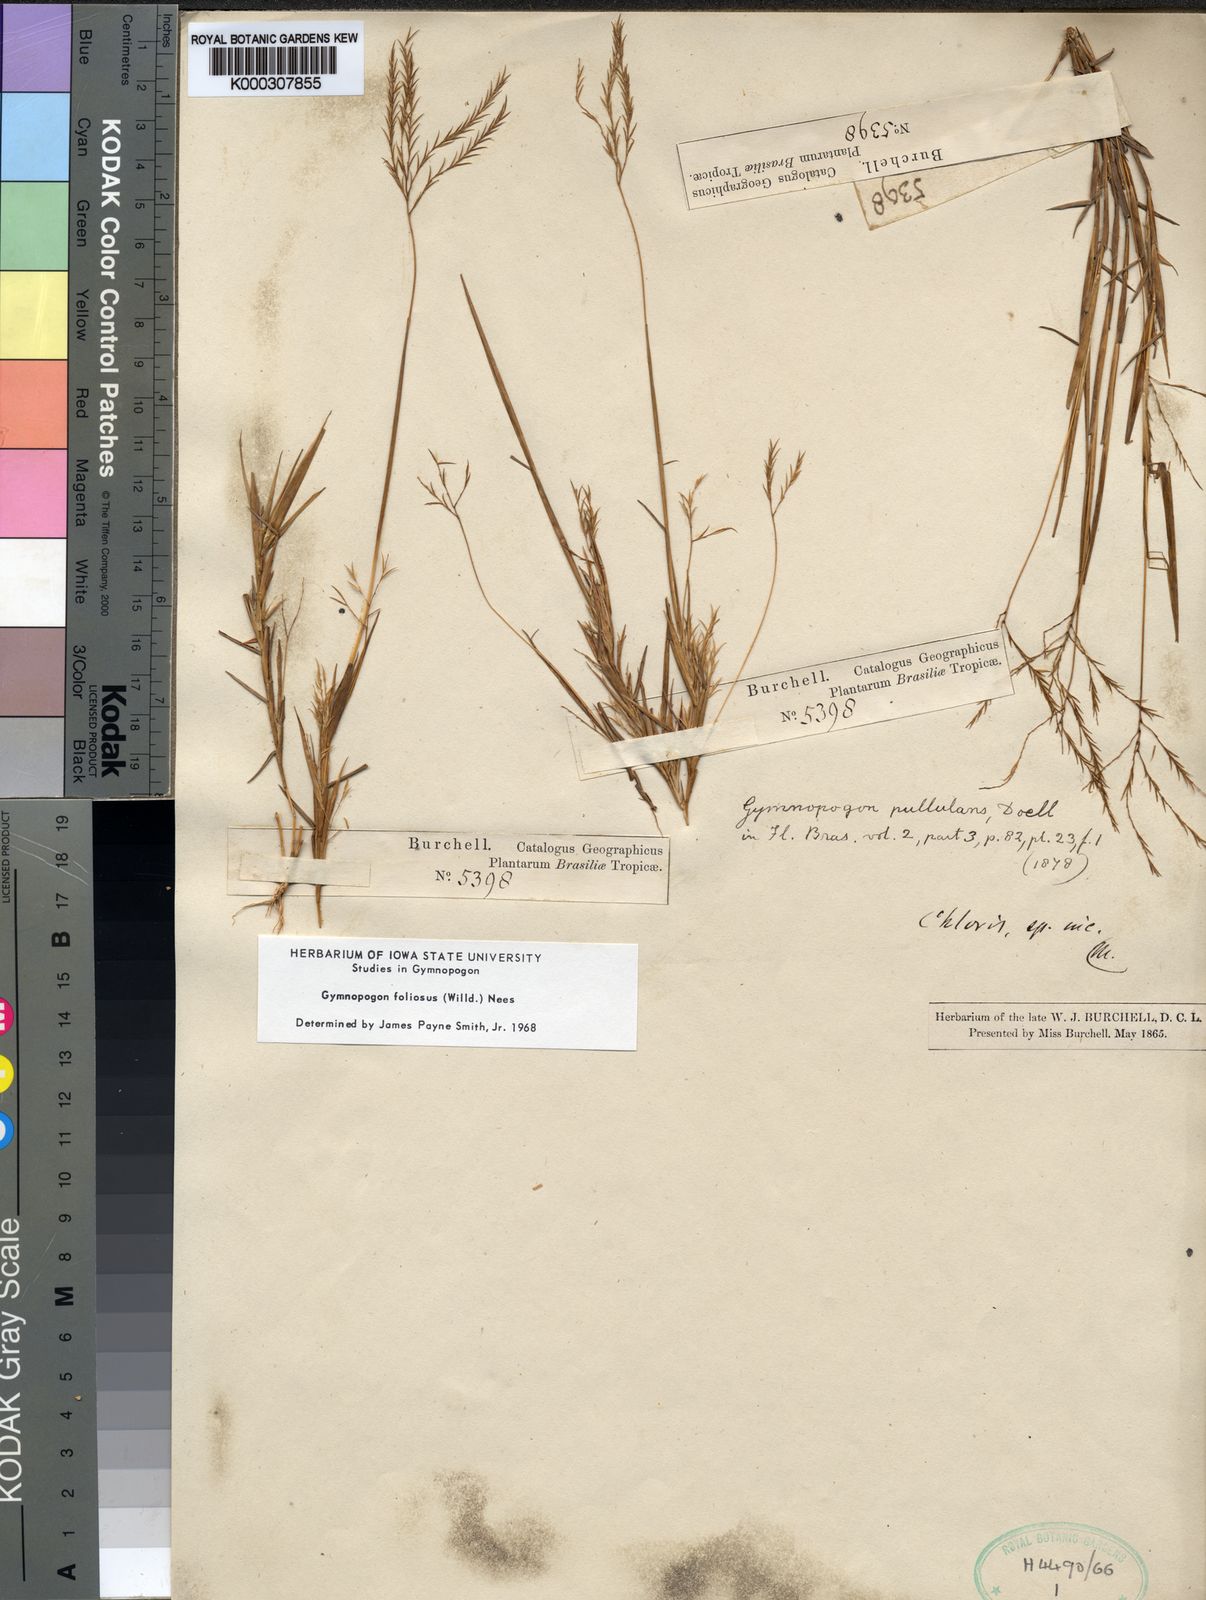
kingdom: Plantae
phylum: Tracheophyta
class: Liliopsida
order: Poales
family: Poaceae
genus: Gymnopogon
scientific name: Gymnopogon foliosus
